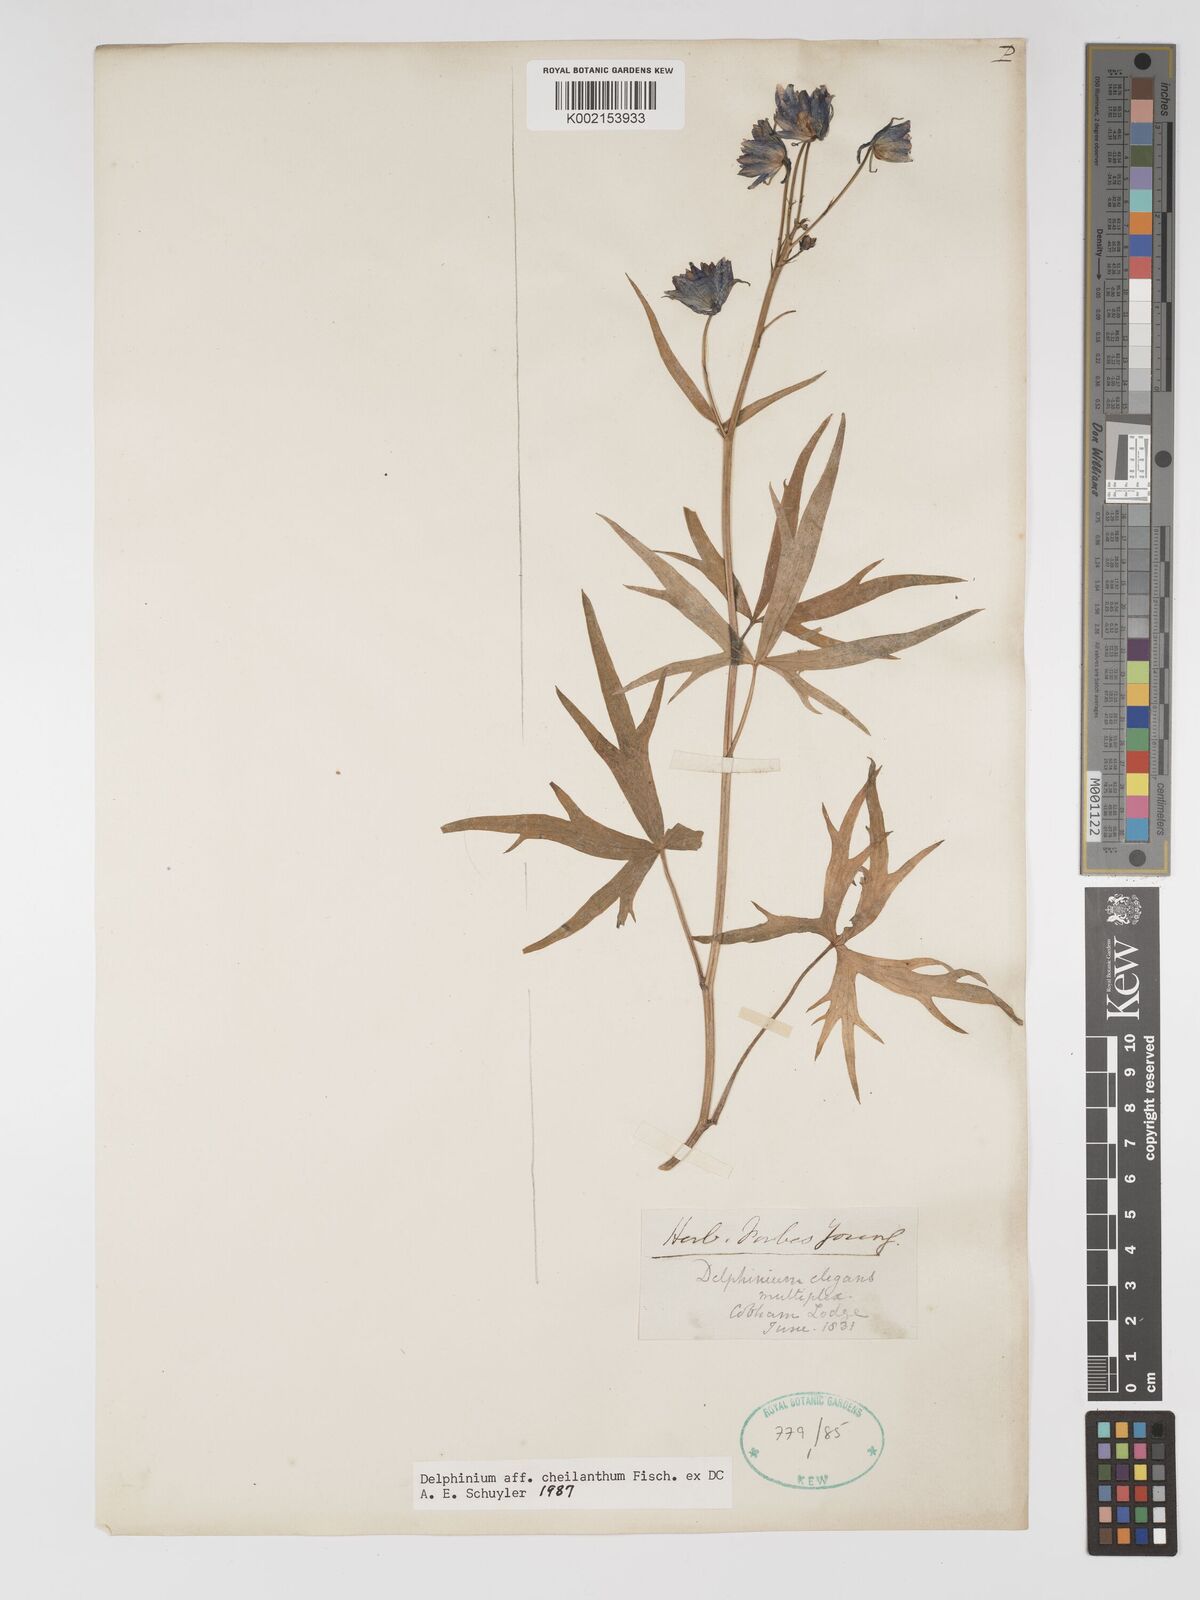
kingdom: Plantae
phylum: Tracheophyta
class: Magnoliopsida
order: Ranunculales
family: Ranunculaceae
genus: Delphinium
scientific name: Delphinium menziesii
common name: Menzies's larkspur
